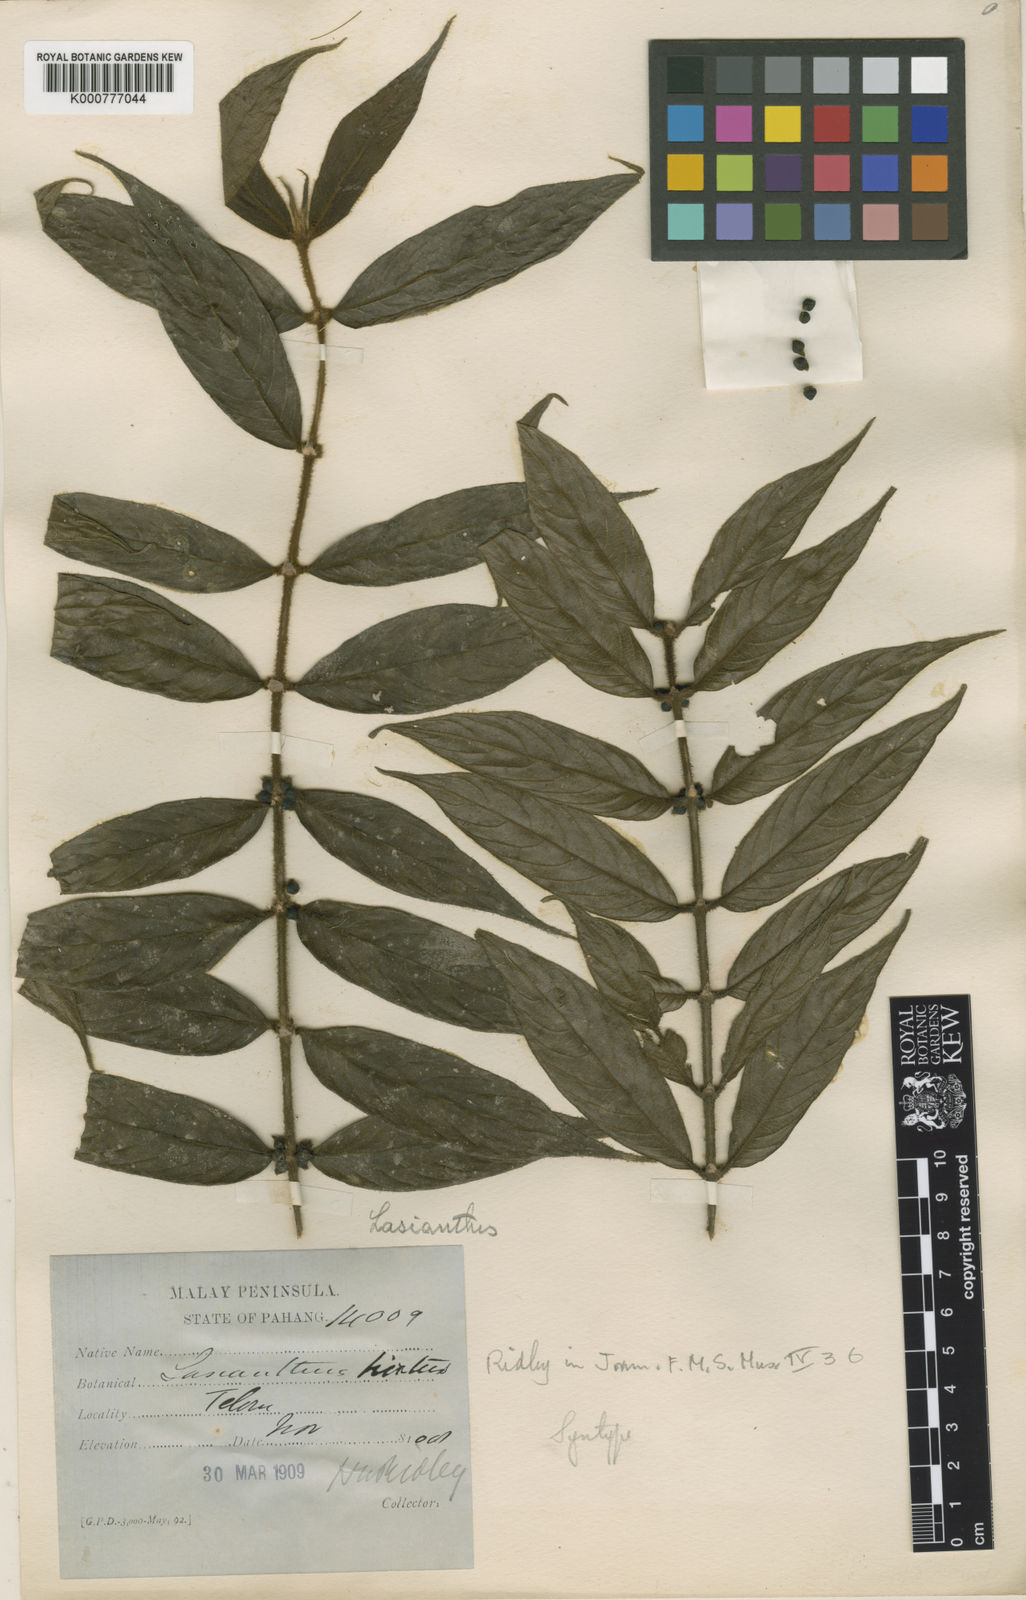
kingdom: Plantae
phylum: Tracheophyta
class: Magnoliopsida
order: Gentianales
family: Rubiaceae
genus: Lasianthus
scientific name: Lasianthus hirsutus
